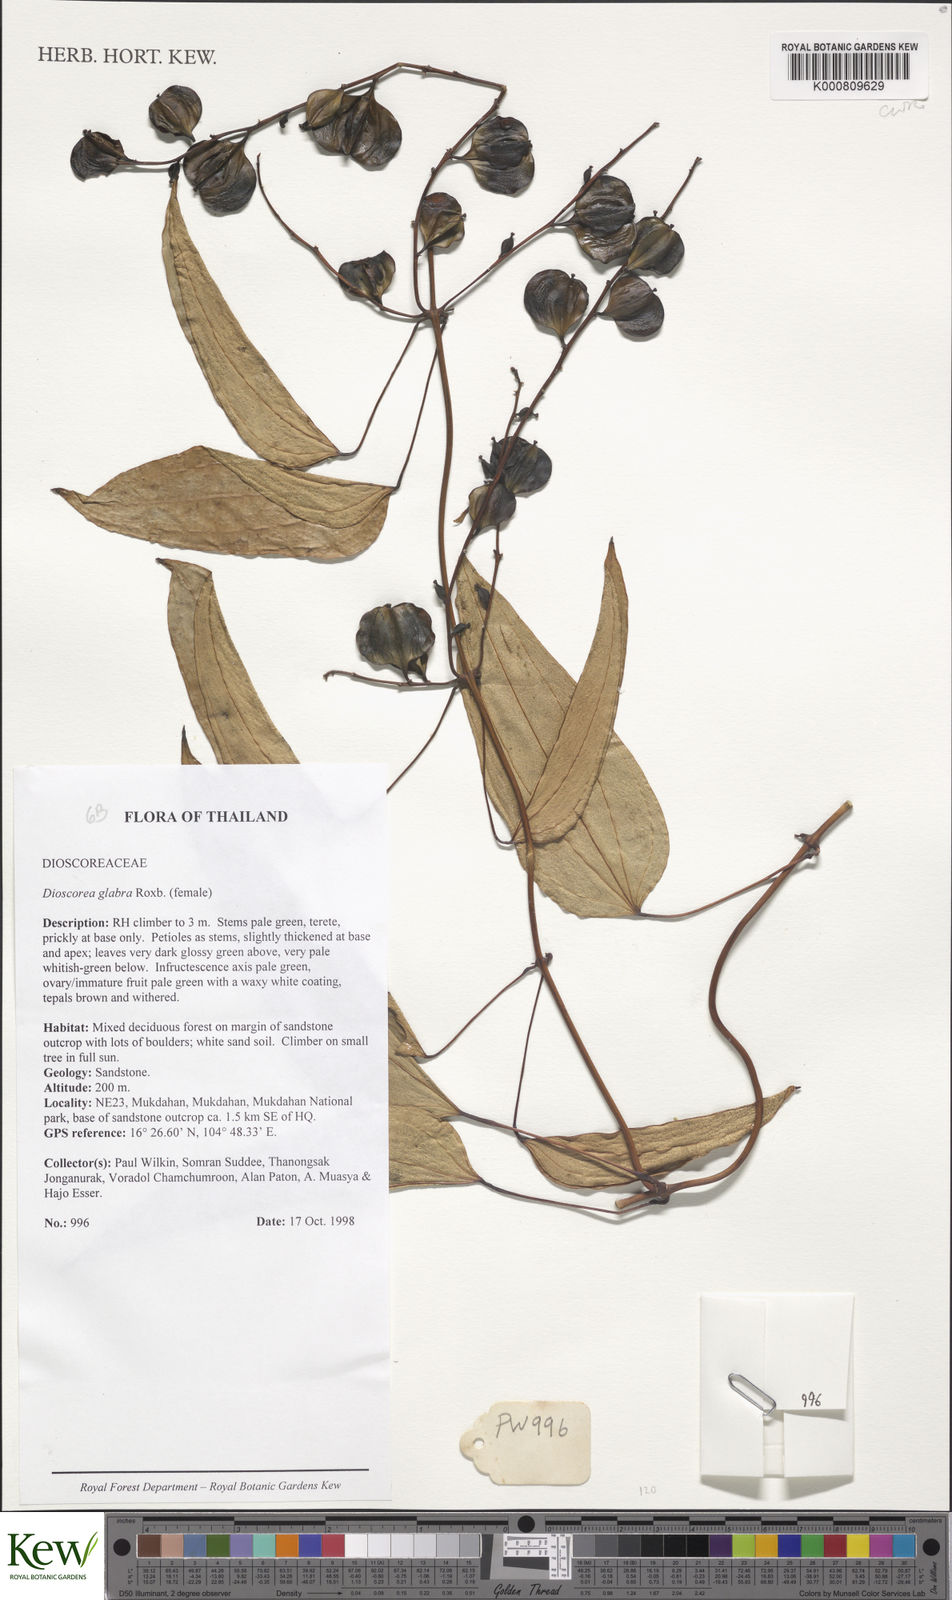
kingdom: Plantae
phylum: Tracheophyta
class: Liliopsida
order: Dioscoreales
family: Dioscoreaceae
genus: Dioscorea
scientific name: Dioscorea glabra
